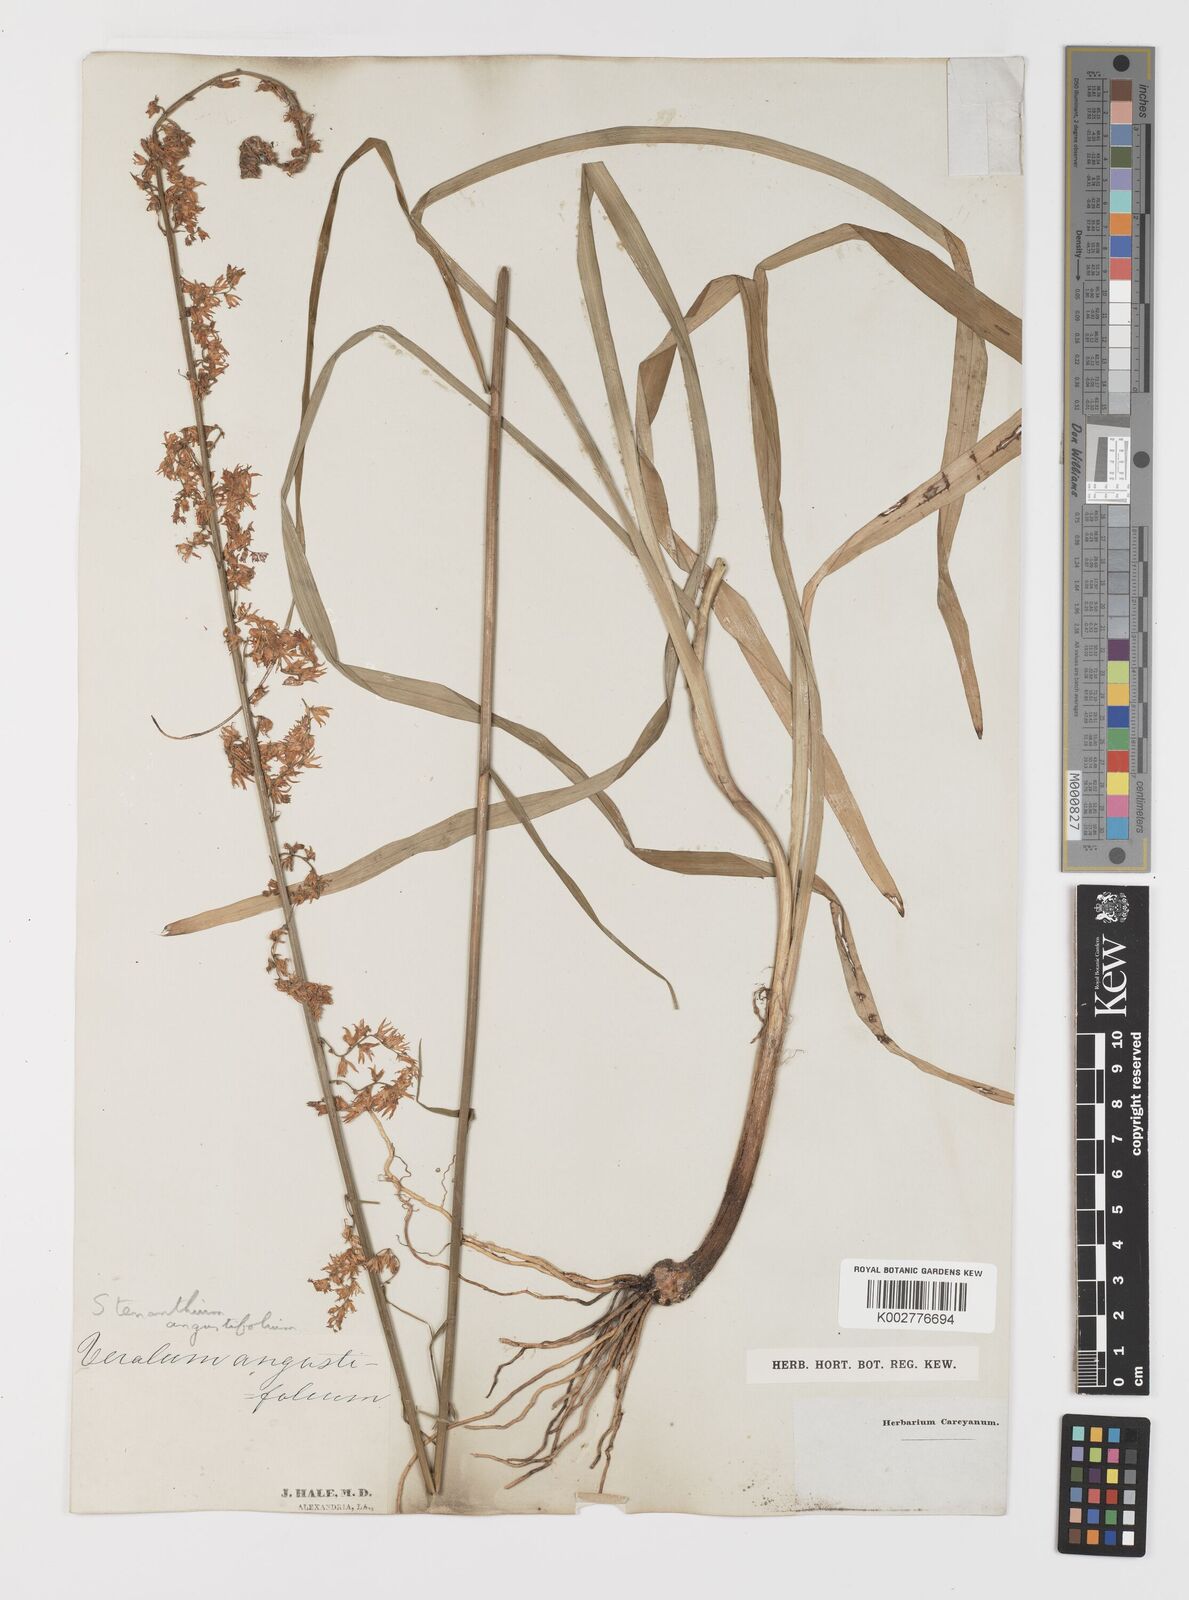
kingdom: Plantae
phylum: Tracheophyta
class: Liliopsida
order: Liliales
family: Melanthiaceae
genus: Stenanthium
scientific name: Stenanthium gramineum
